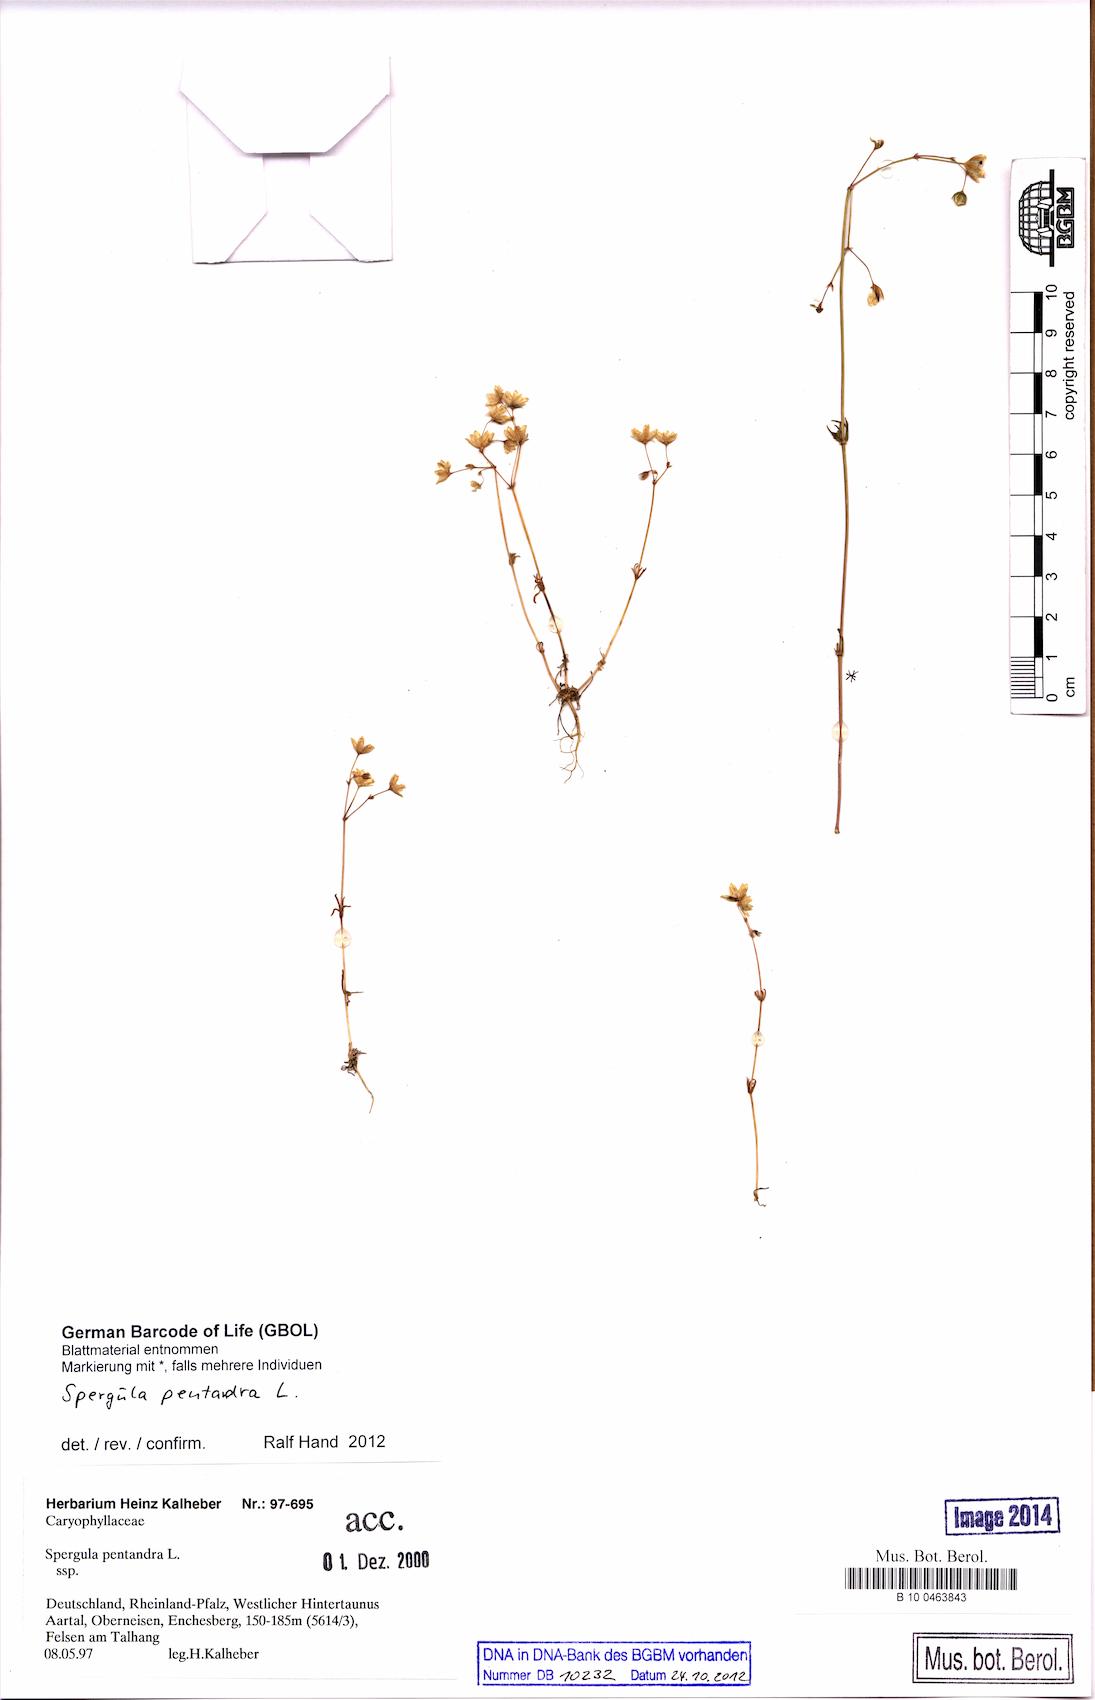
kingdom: Plantae
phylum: Tracheophyta
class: Magnoliopsida
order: Caryophyllales
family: Caryophyllaceae
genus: Spergula
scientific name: Spergula pentandra
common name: Wingstem spurry
